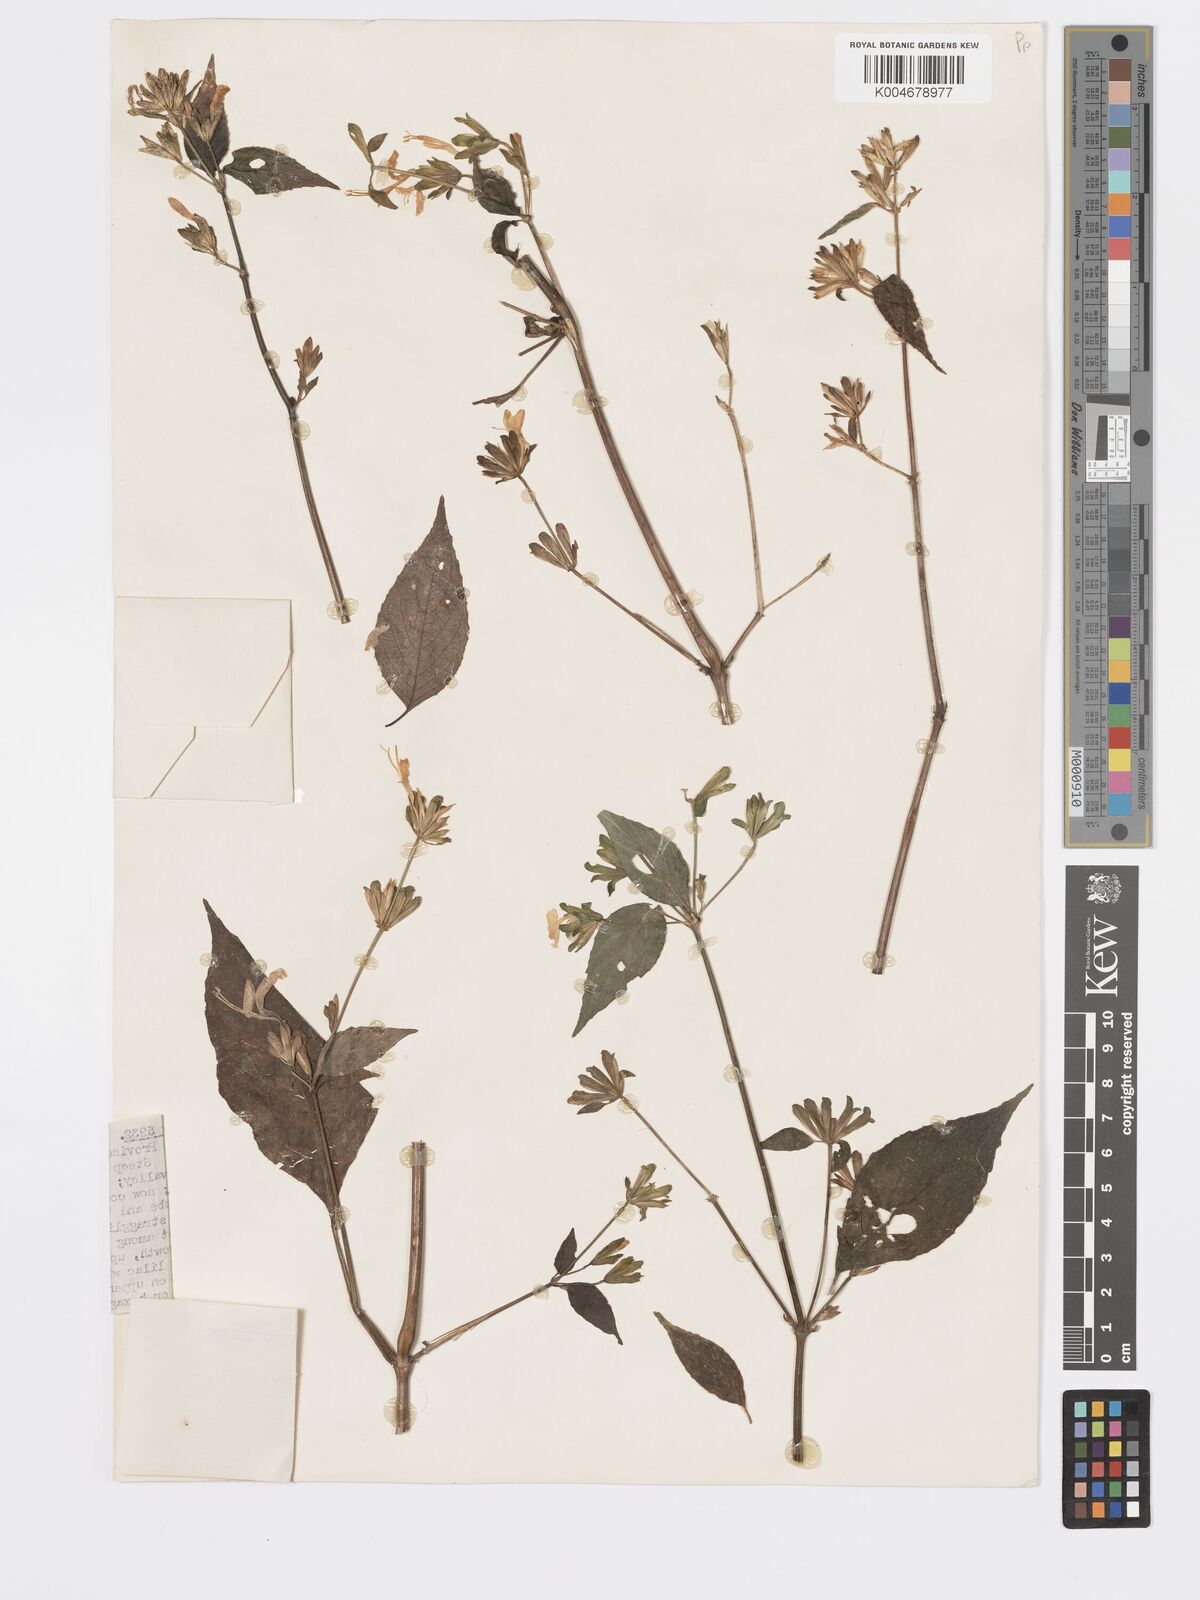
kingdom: Plantae
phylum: Tracheophyta
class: Magnoliopsida
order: Lamiales
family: Acanthaceae
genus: Hypoestes
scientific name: Hypoestes triflora
